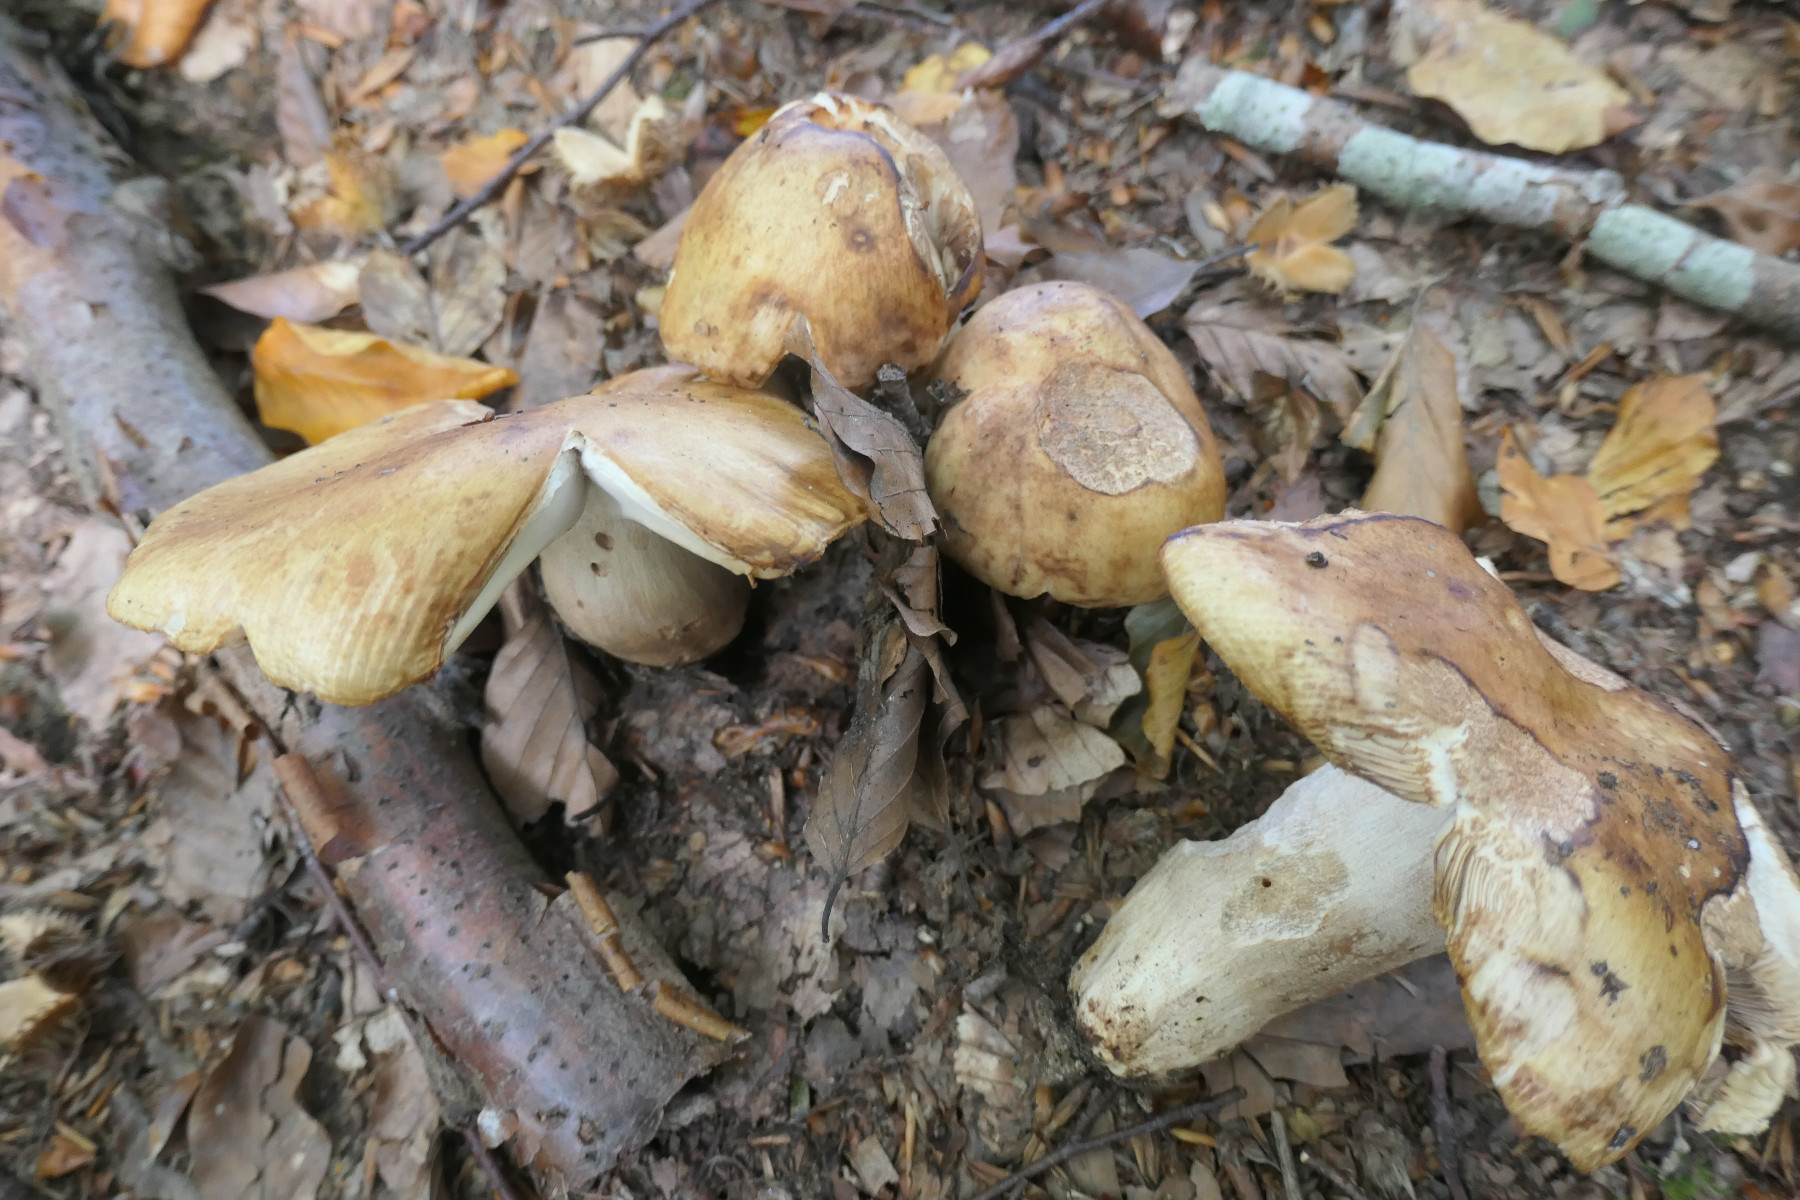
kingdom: Fungi
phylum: Basidiomycota
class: Agaricomycetes
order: Russulales
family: Russulaceae
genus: Russula
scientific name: Russula illota
